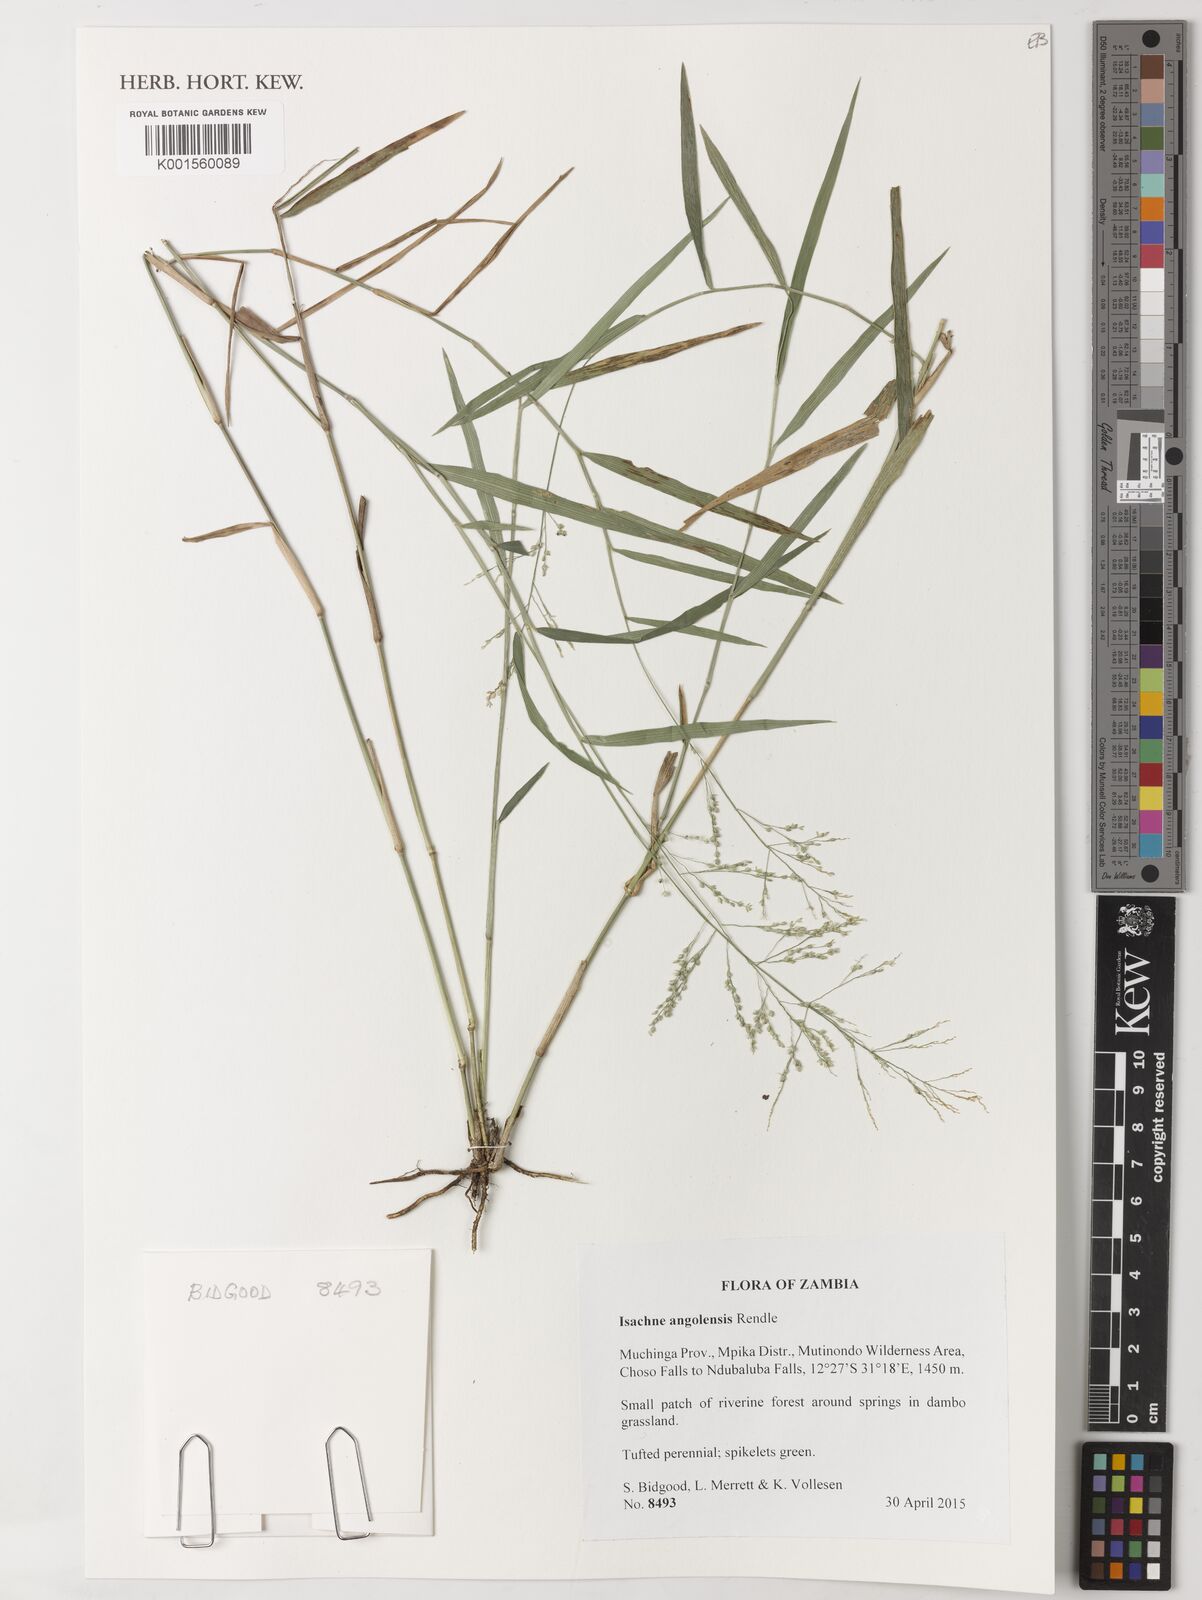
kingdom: Plantae
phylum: Tracheophyta
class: Liliopsida
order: Poales
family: Poaceae
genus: Isachne
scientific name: Isachne angolensis
